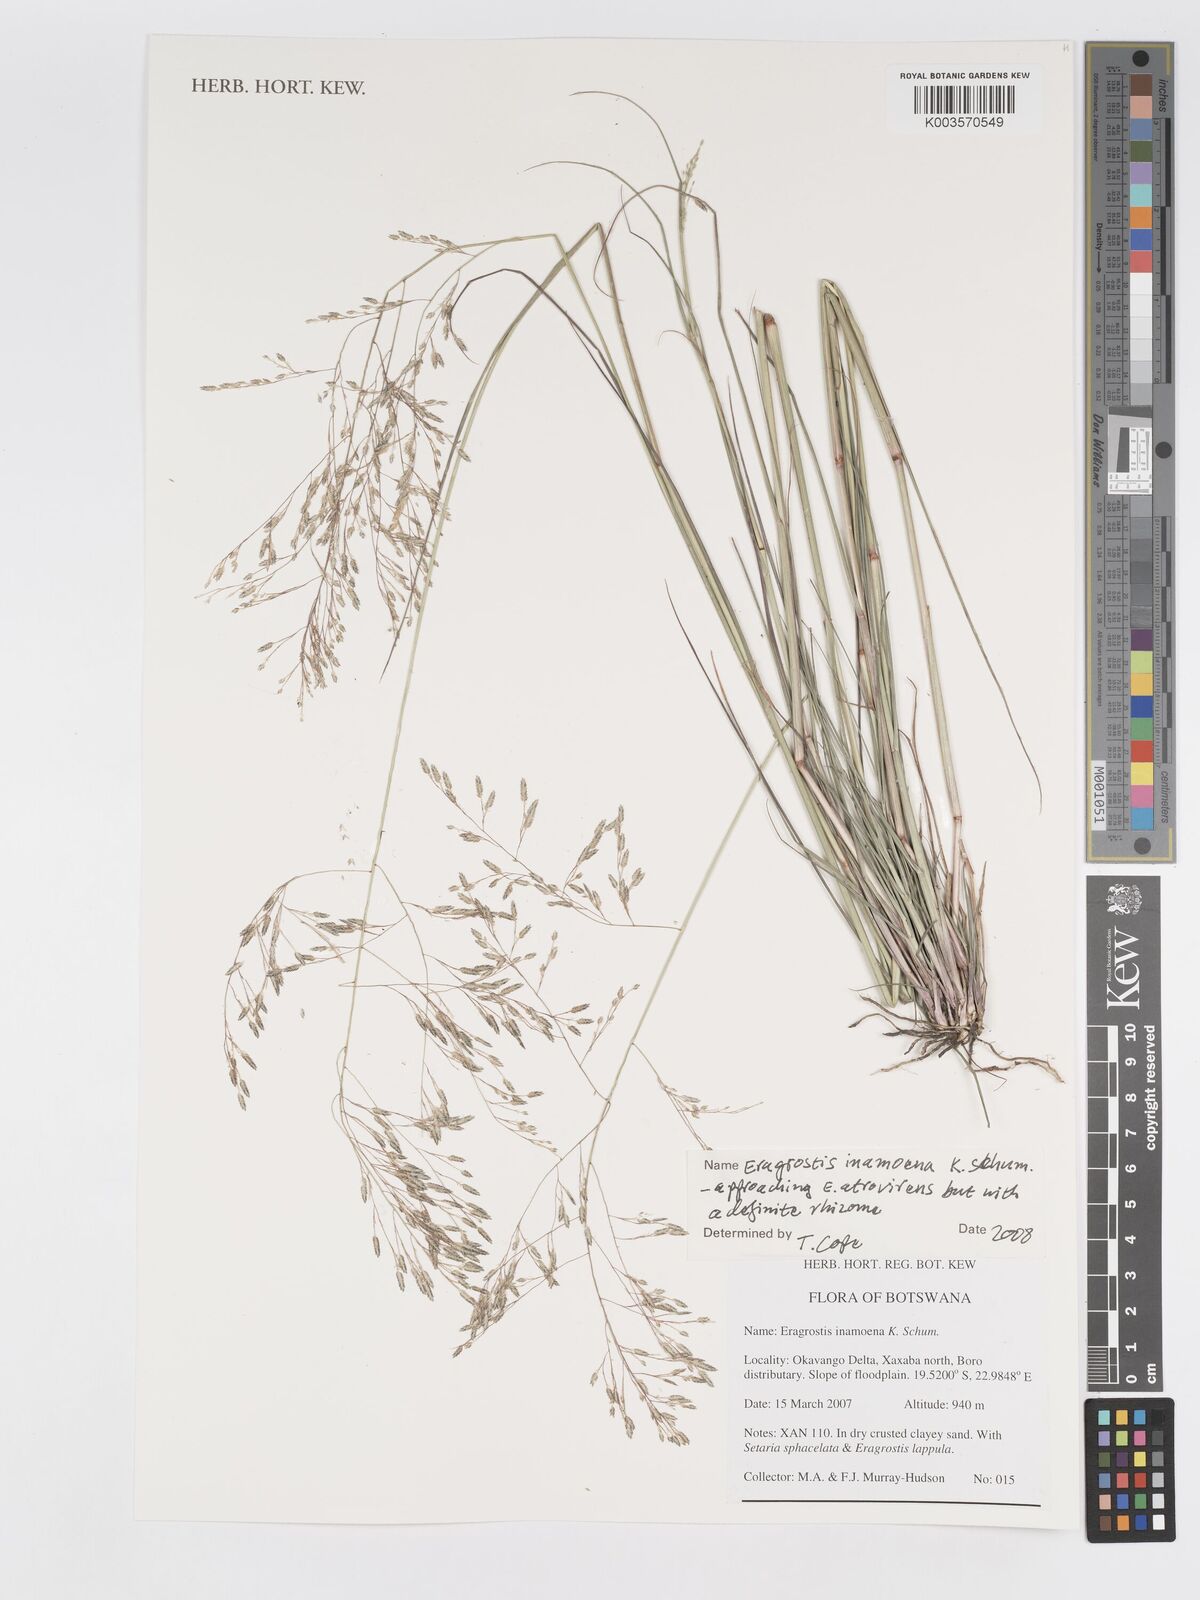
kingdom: Plantae
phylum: Tracheophyta
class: Liliopsida
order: Poales
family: Poaceae
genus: Eragrostis
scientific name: Eragrostis inamoena
